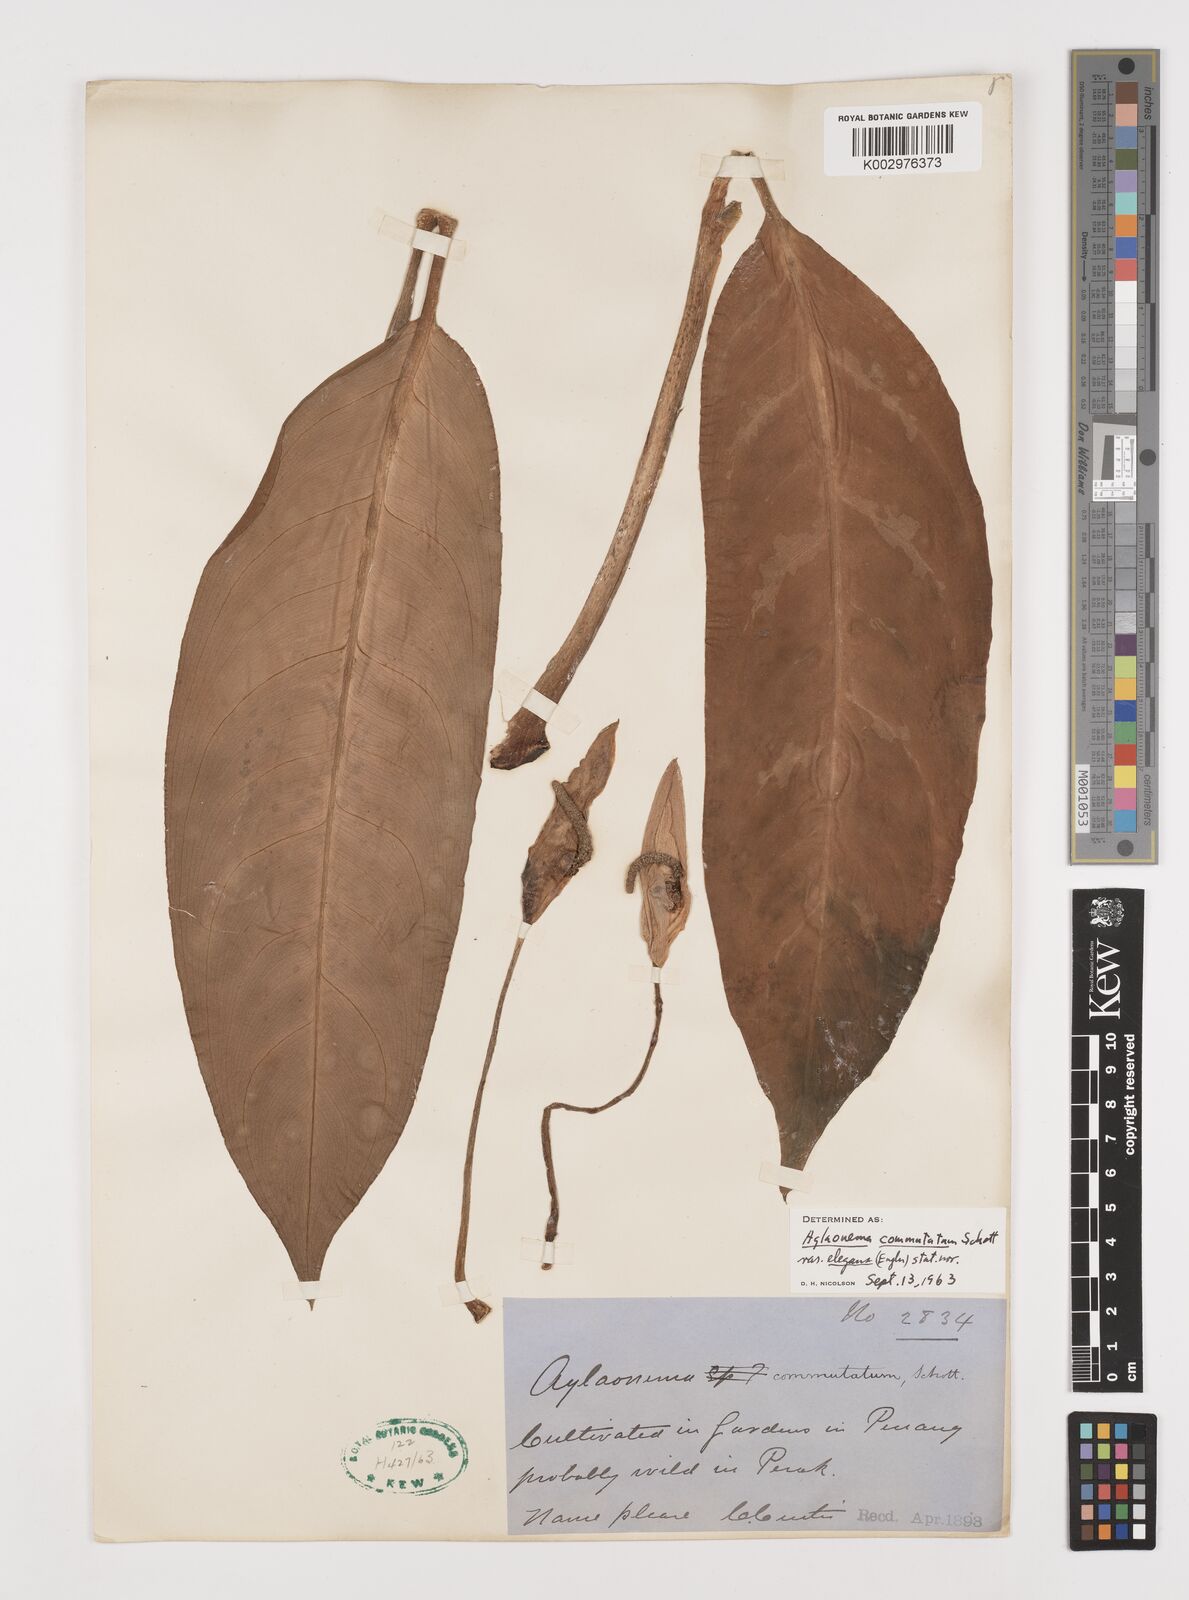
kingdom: Plantae
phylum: Tracheophyta
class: Liliopsida
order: Alismatales
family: Araceae
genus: Aglaonema
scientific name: Aglaonema commutatum
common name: Philippine evergreen
